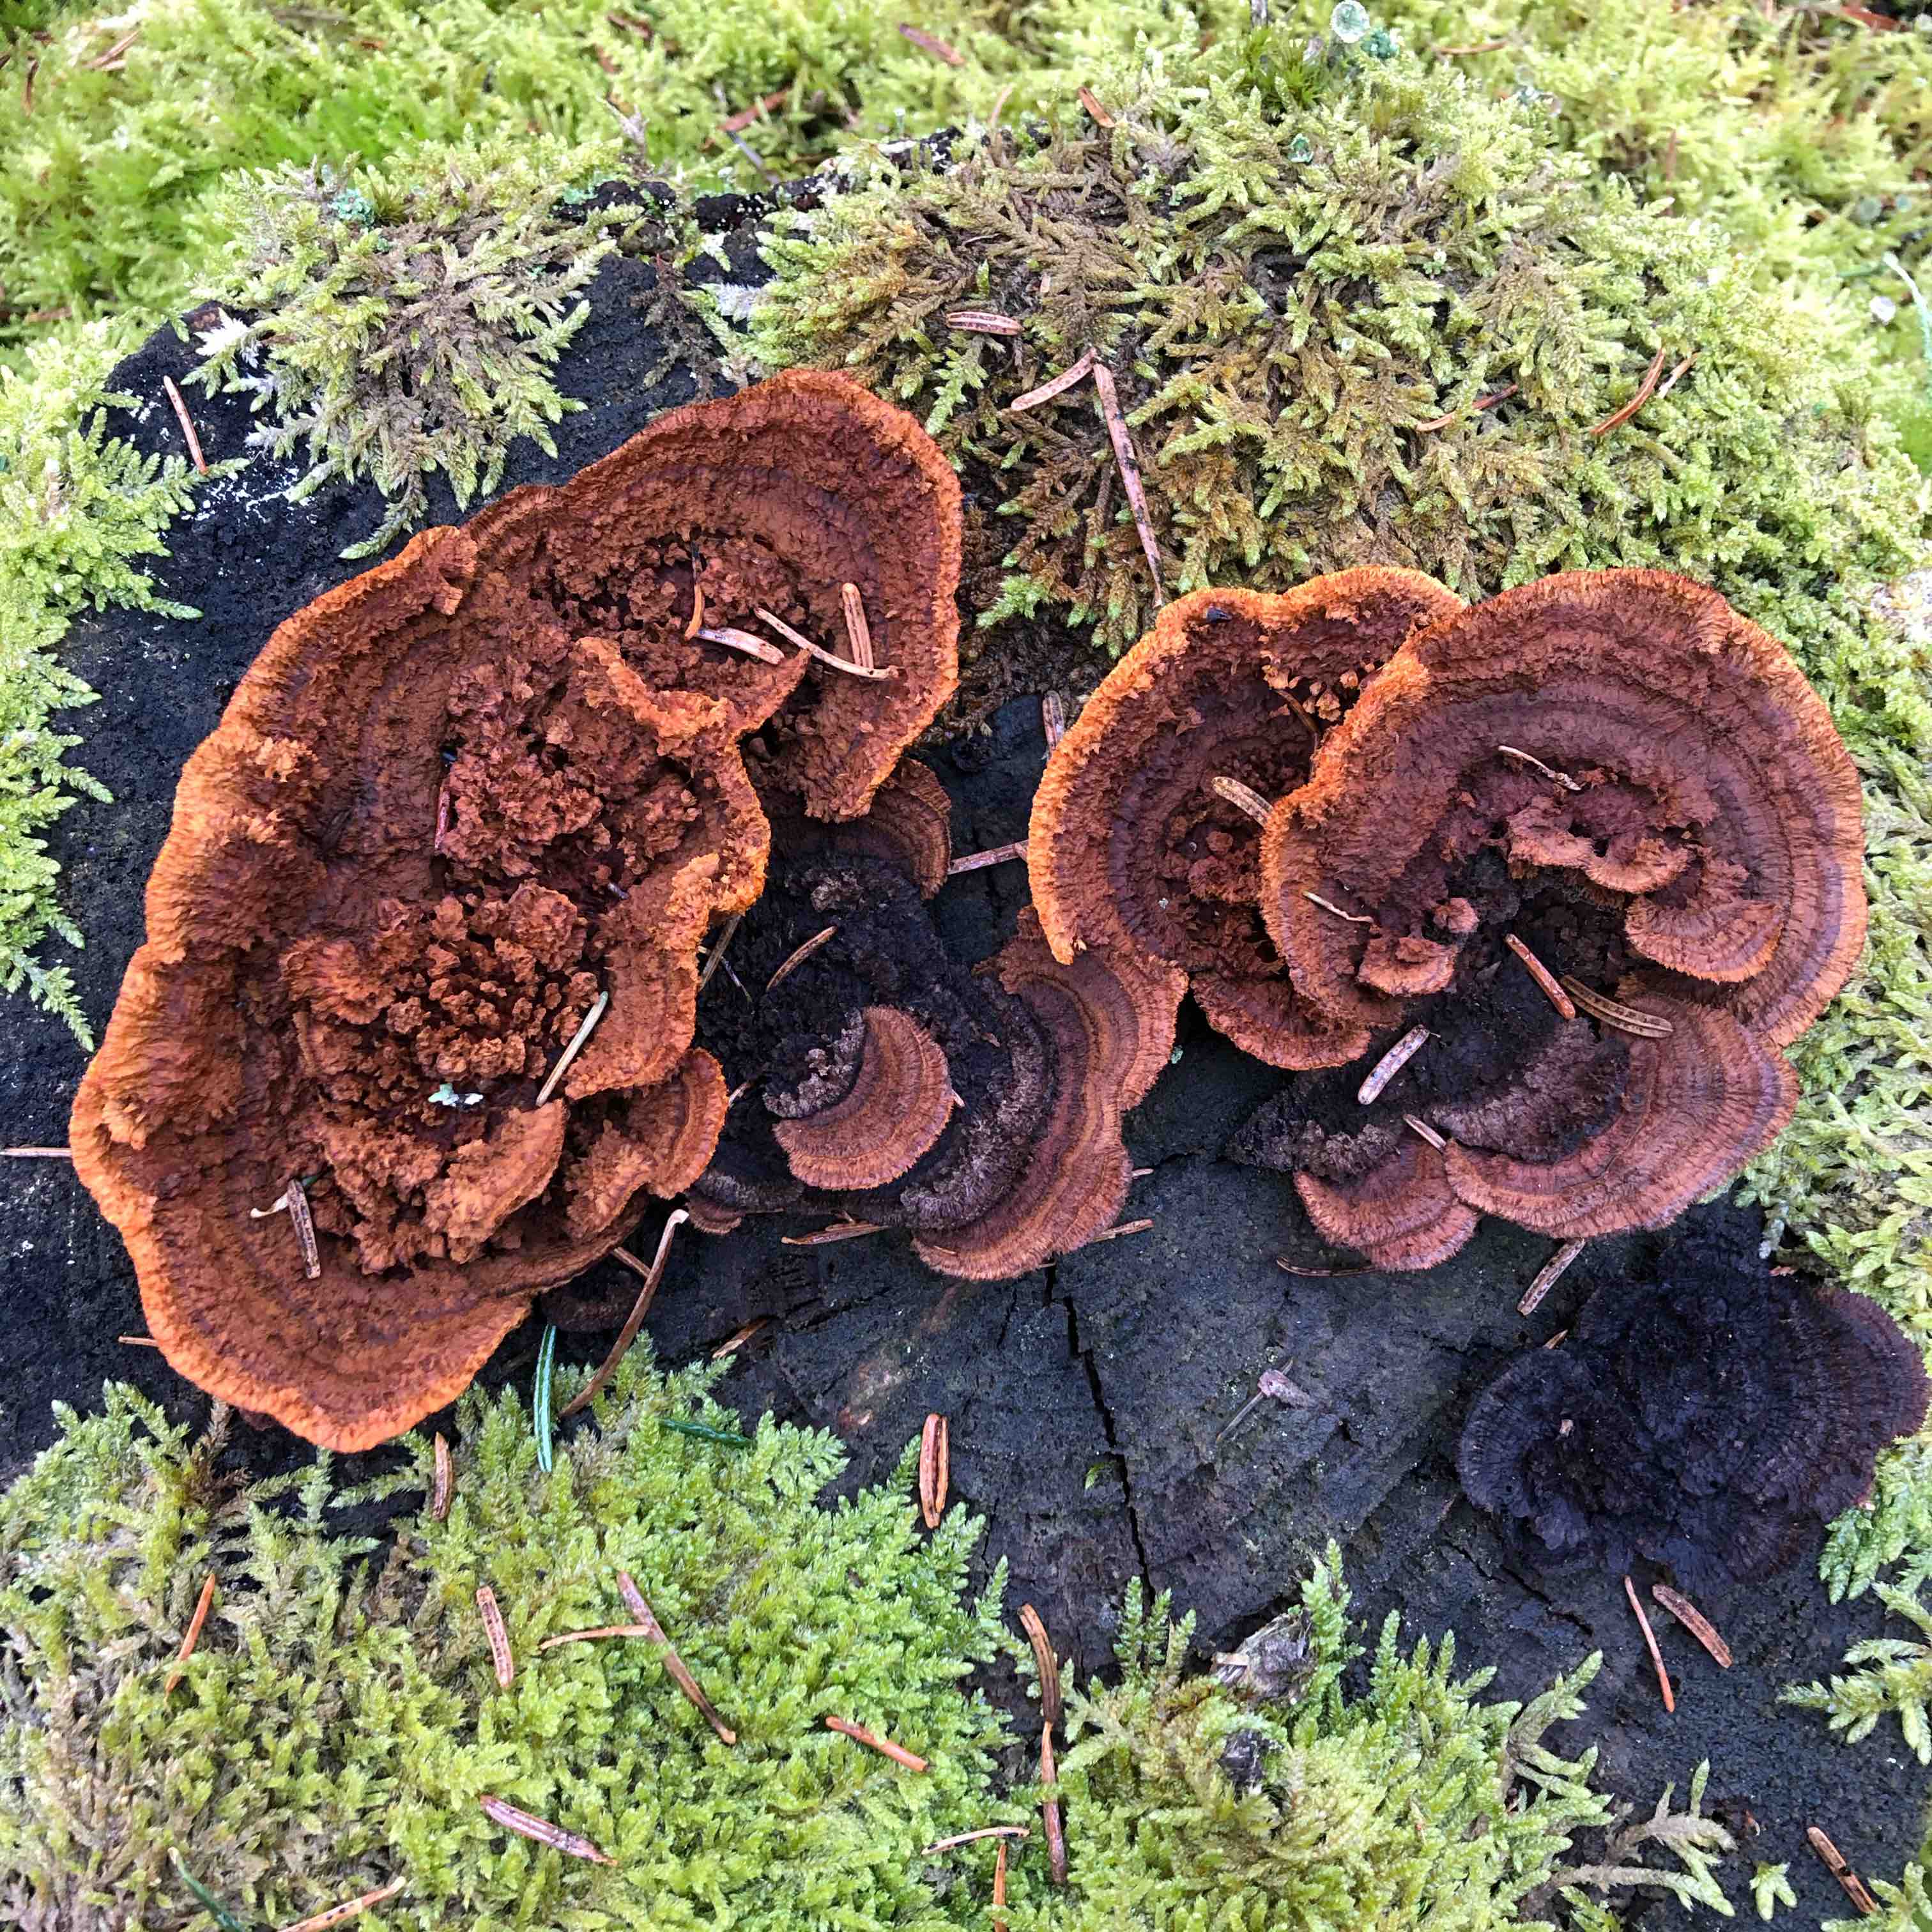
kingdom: Fungi
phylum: Basidiomycota
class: Agaricomycetes
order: Gloeophyllales
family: Gloeophyllaceae
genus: Gloeophyllum
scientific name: Gloeophyllum sepiarium
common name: fyrre-korkhat
